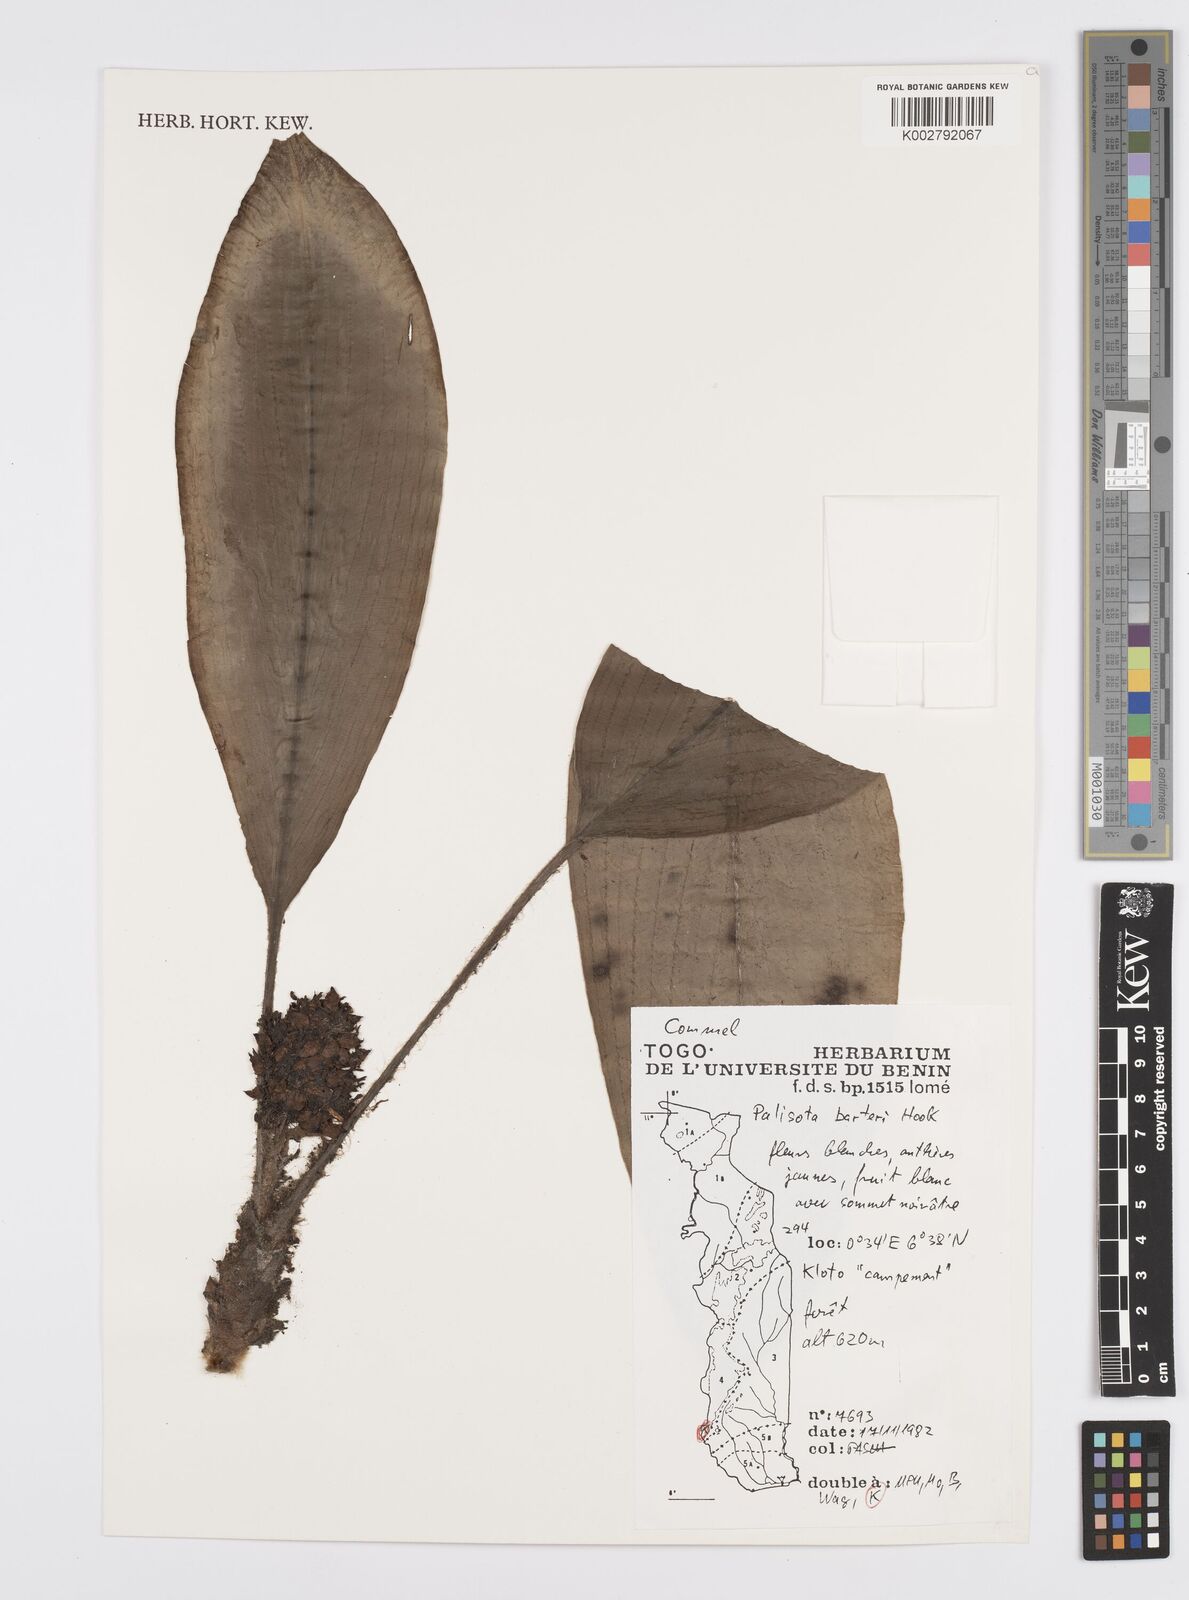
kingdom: Plantae
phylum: Tracheophyta
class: Liliopsida
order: Commelinales
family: Commelinaceae
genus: Palisota
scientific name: Palisota barteri
